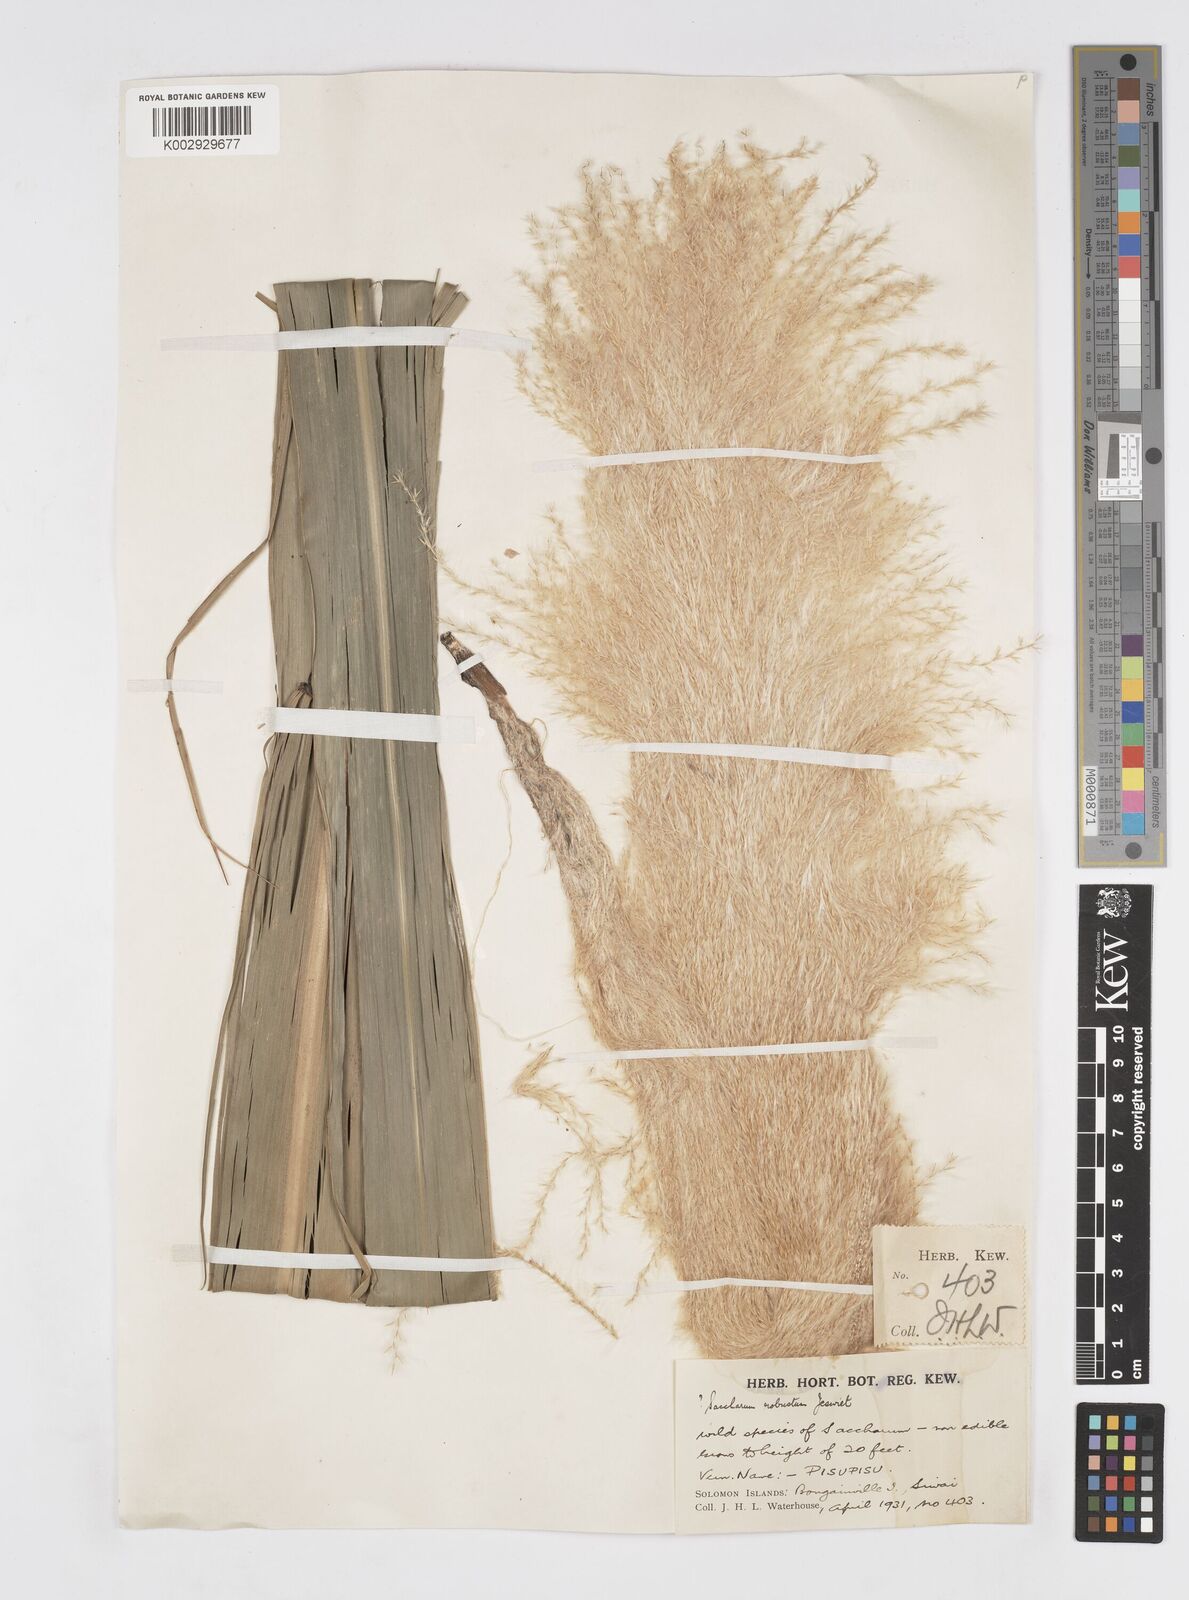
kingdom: Plantae
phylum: Tracheophyta
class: Liliopsida
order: Poales
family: Poaceae
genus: Saccharum
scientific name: Saccharum robustum
